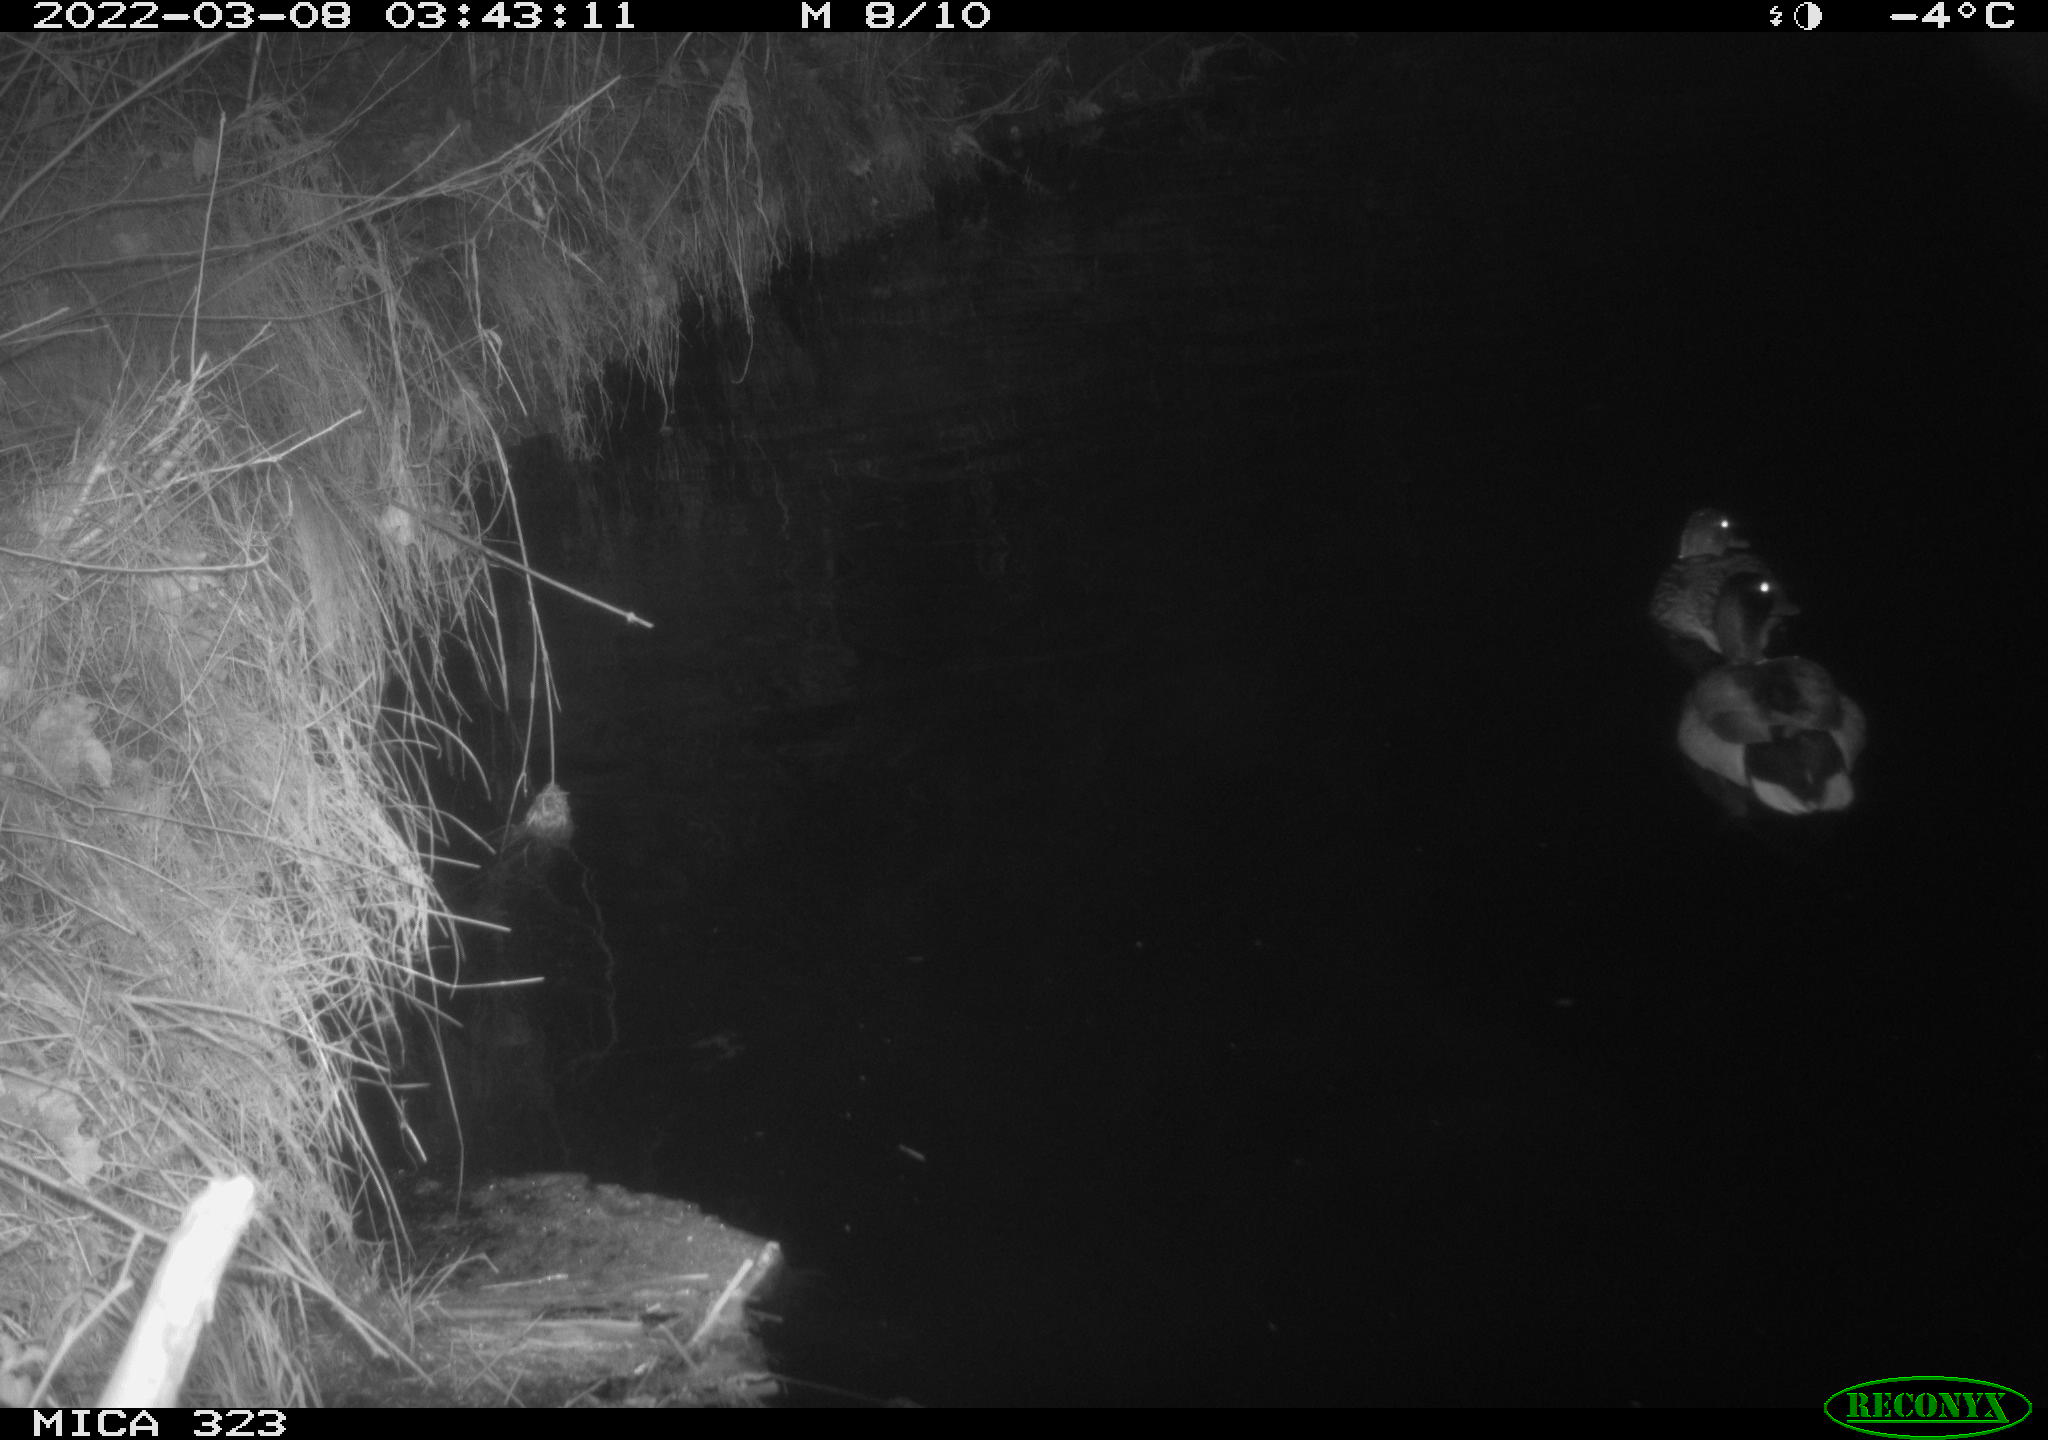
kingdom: Animalia
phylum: Chordata
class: Aves
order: Anseriformes
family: Anatidae
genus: Anas
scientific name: Anas platyrhynchos
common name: Mallard
